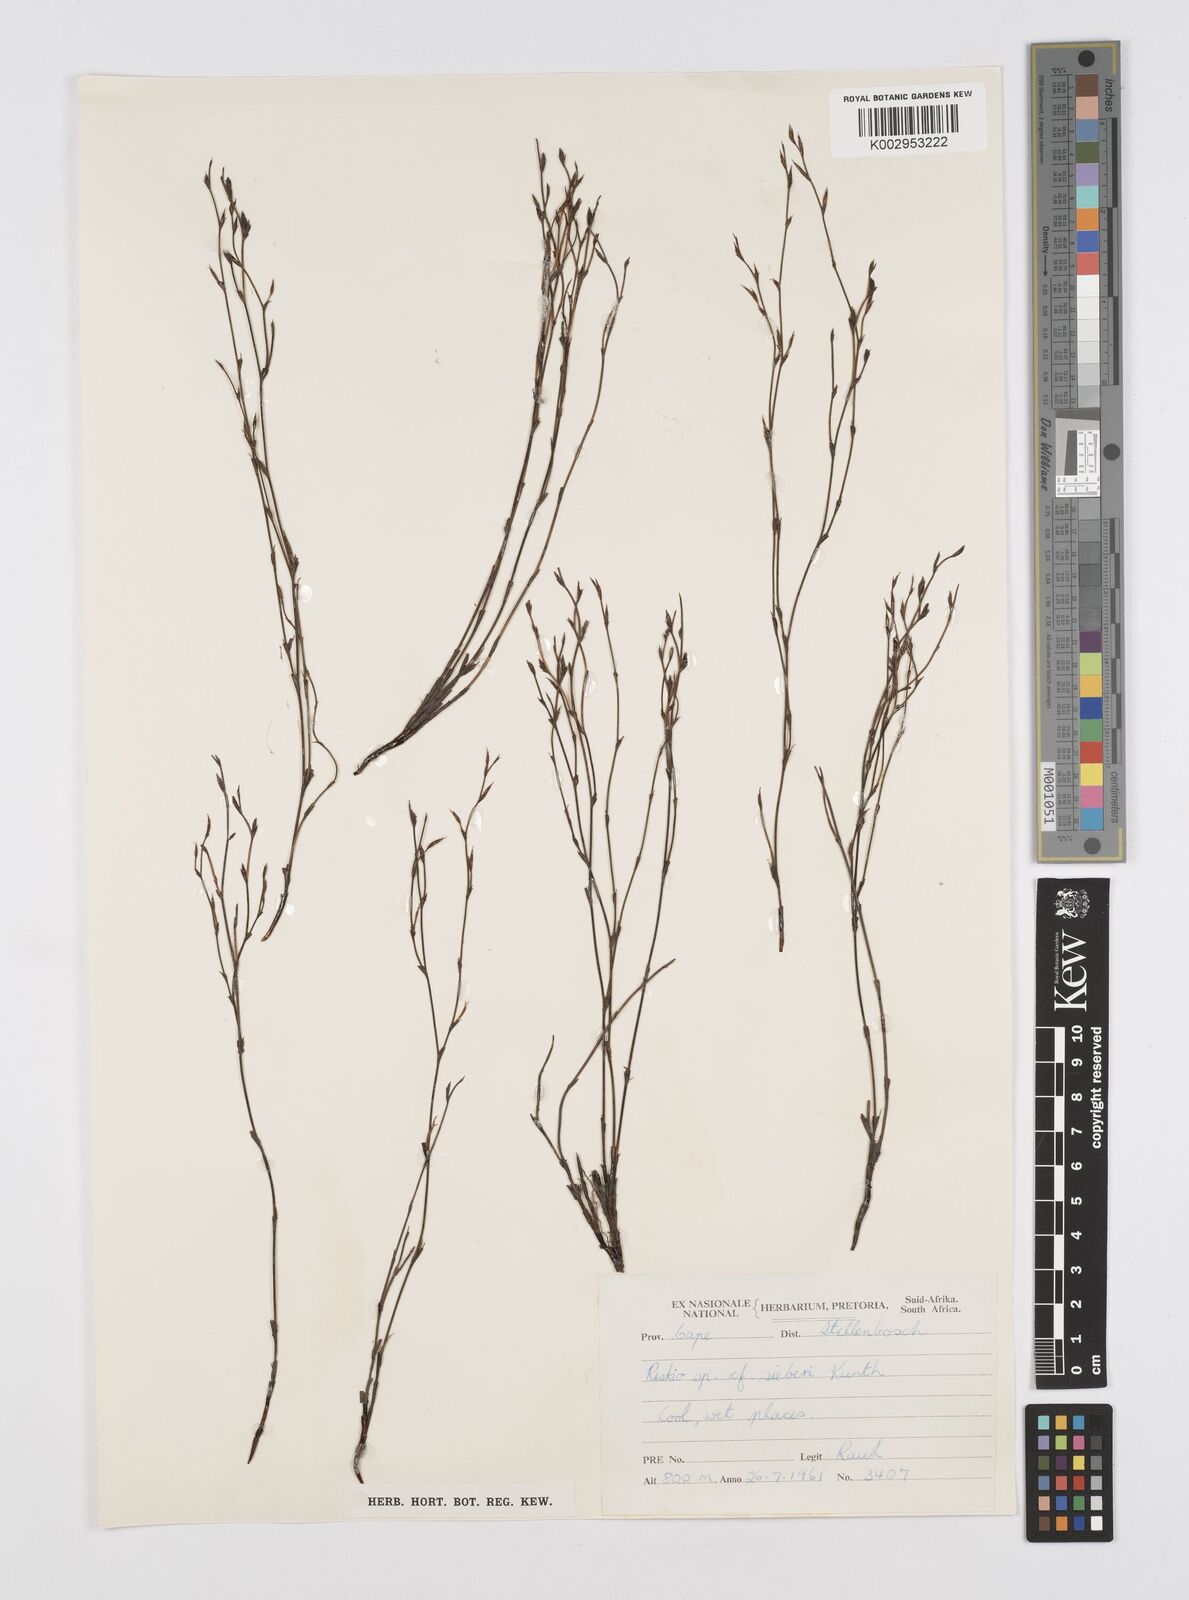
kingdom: Plantae
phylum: Tracheophyta
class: Liliopsida
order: Poales
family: Restionaceae
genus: Restio
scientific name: Restio
